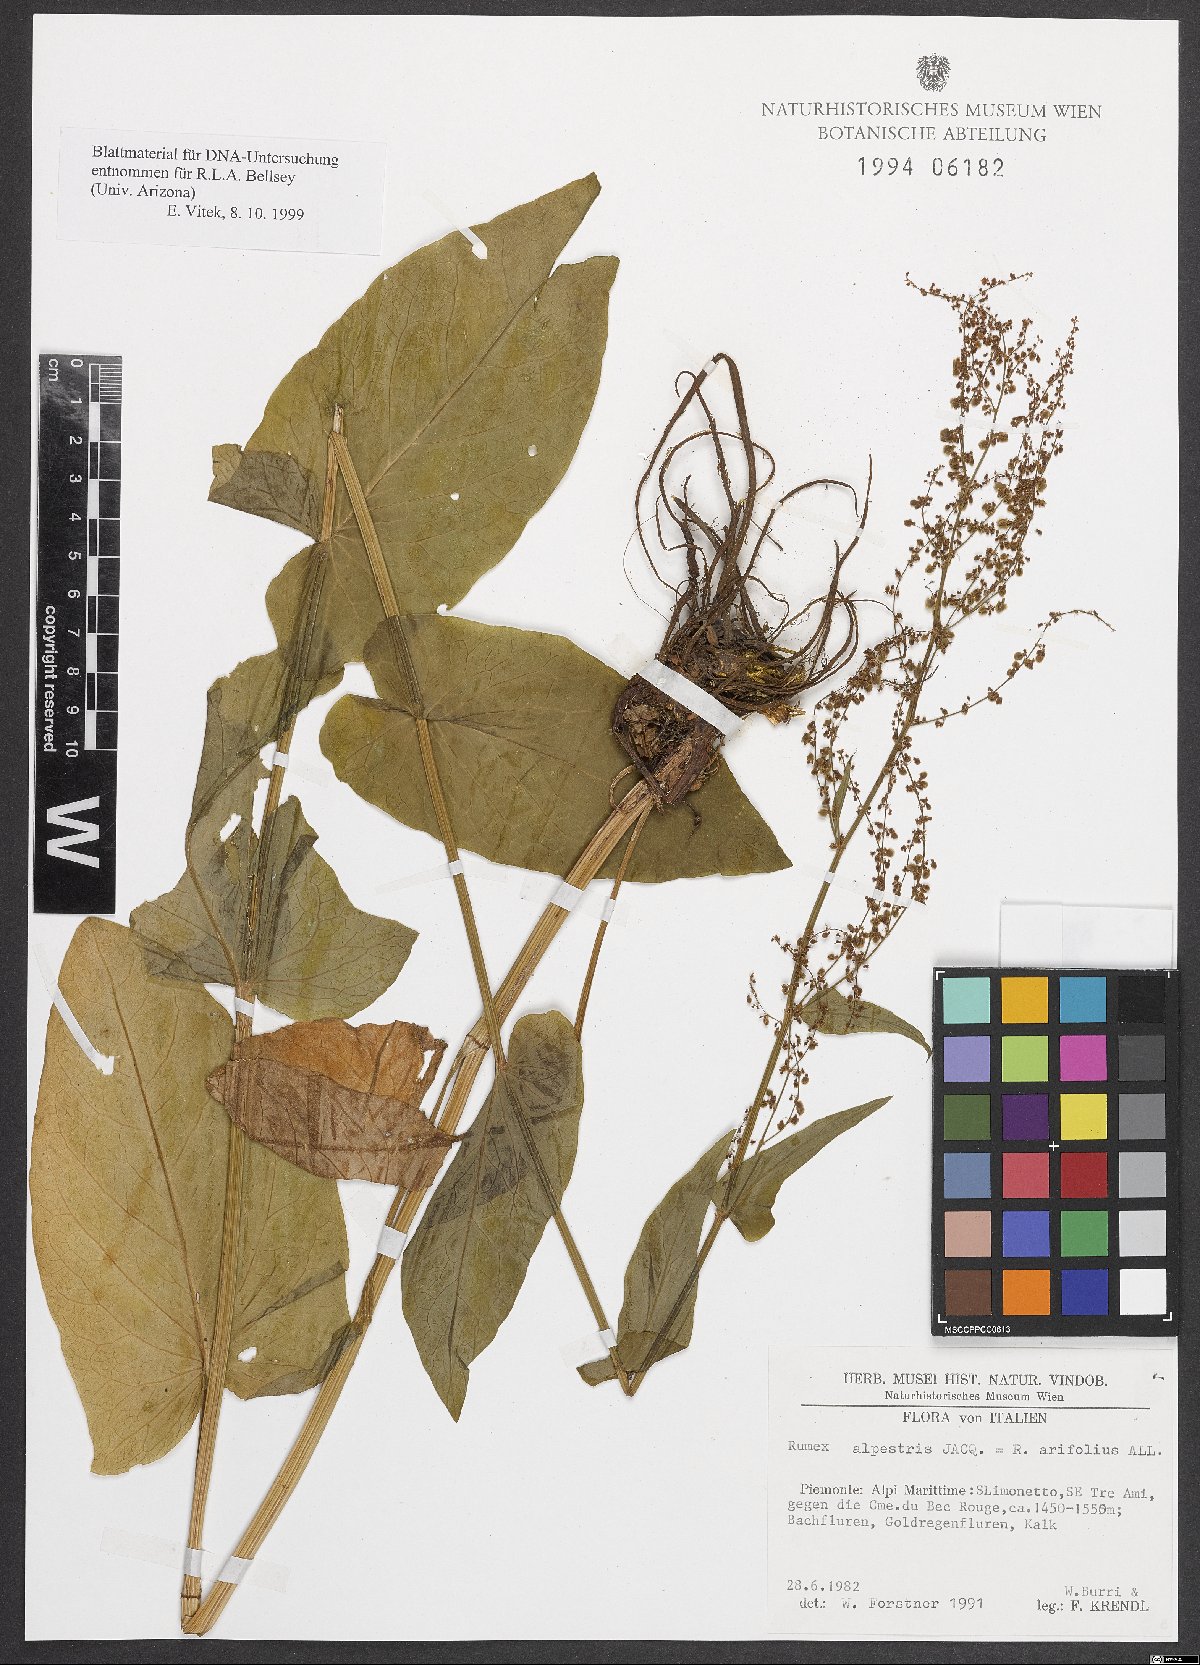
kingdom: Plantae
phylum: Tracheophyta
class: Magnoliopsida
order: Caryophyllales
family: Polygonaceae
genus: Rumex
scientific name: Rumex arifolius
